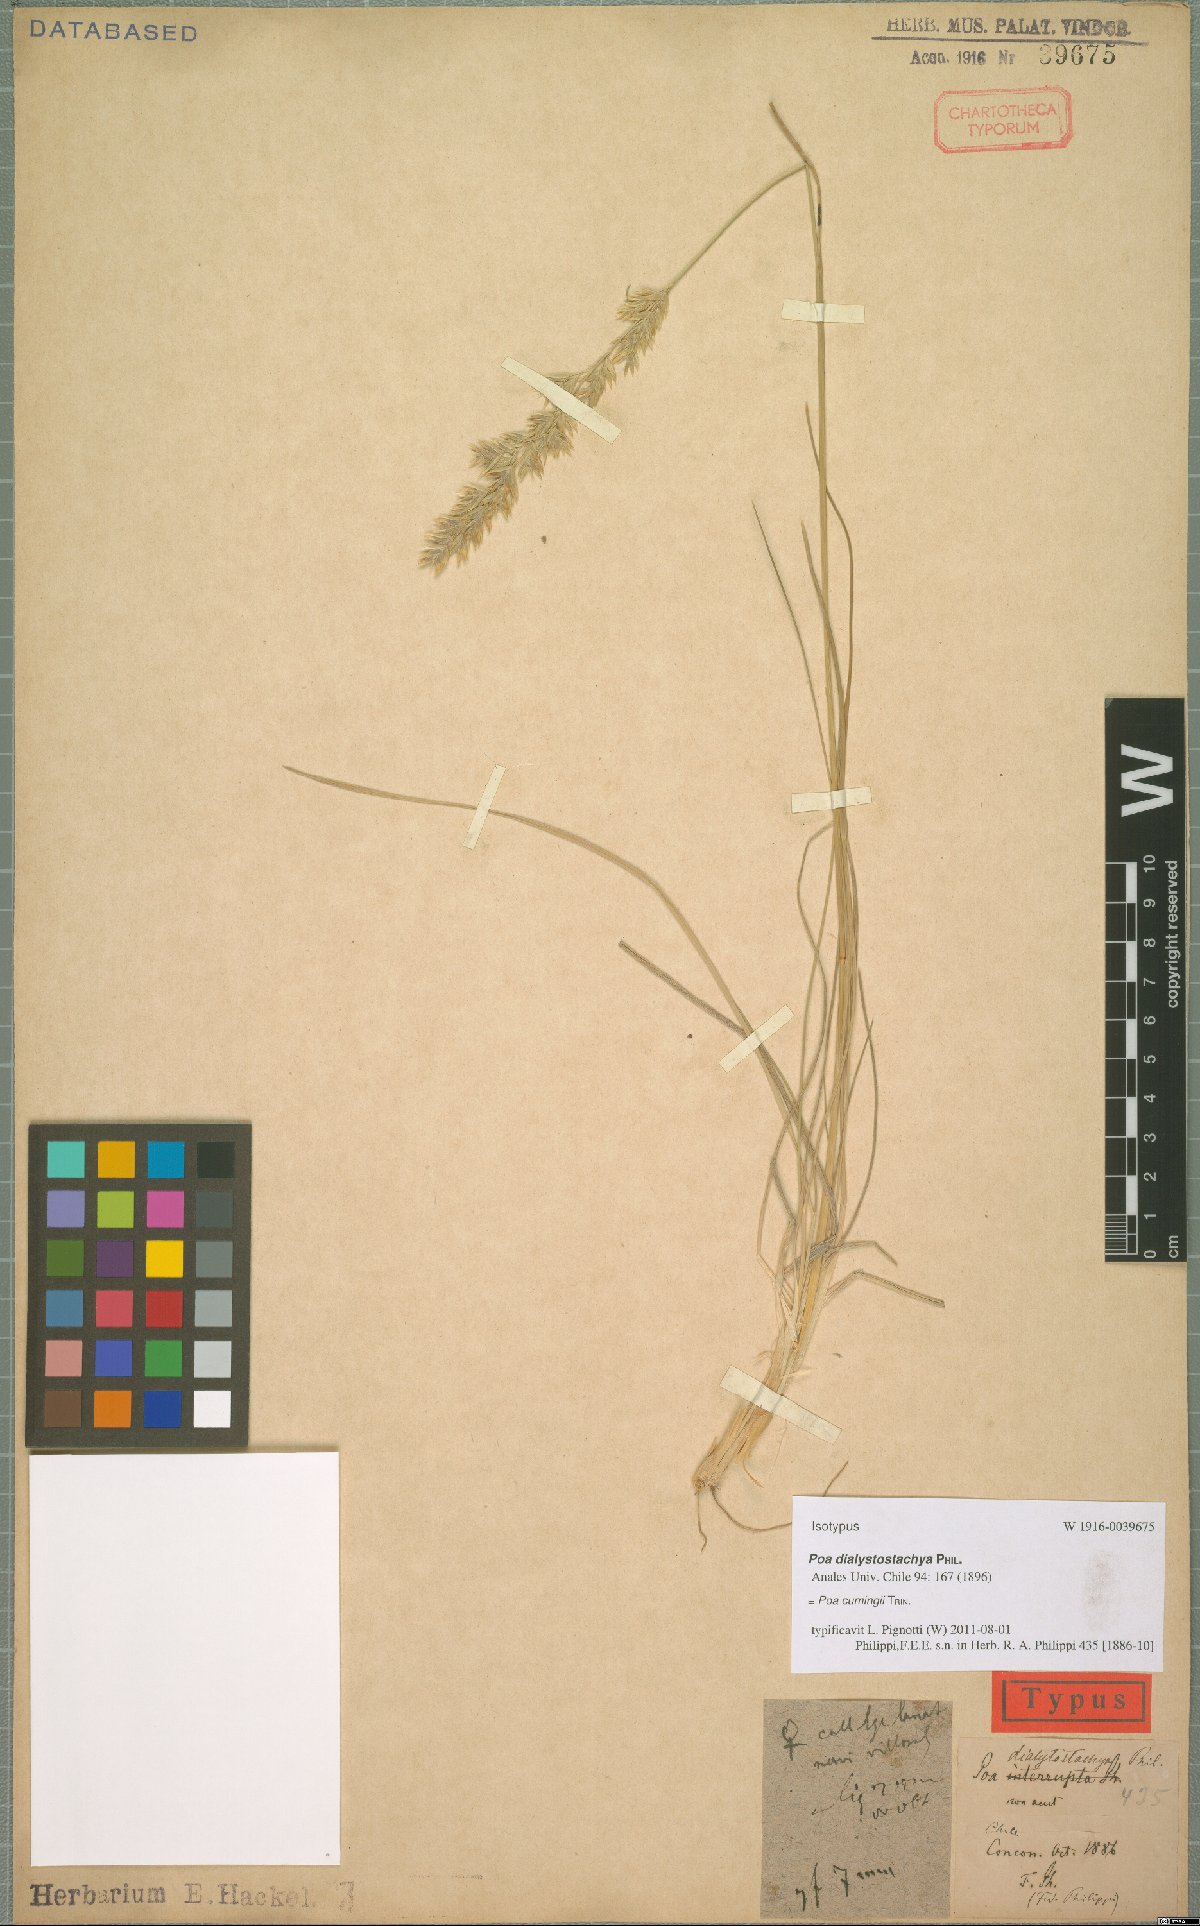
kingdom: Plantae
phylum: Tracheophyta
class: Liliopsida
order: Poales
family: Poaceae
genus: Poa
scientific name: Poa cumingii
